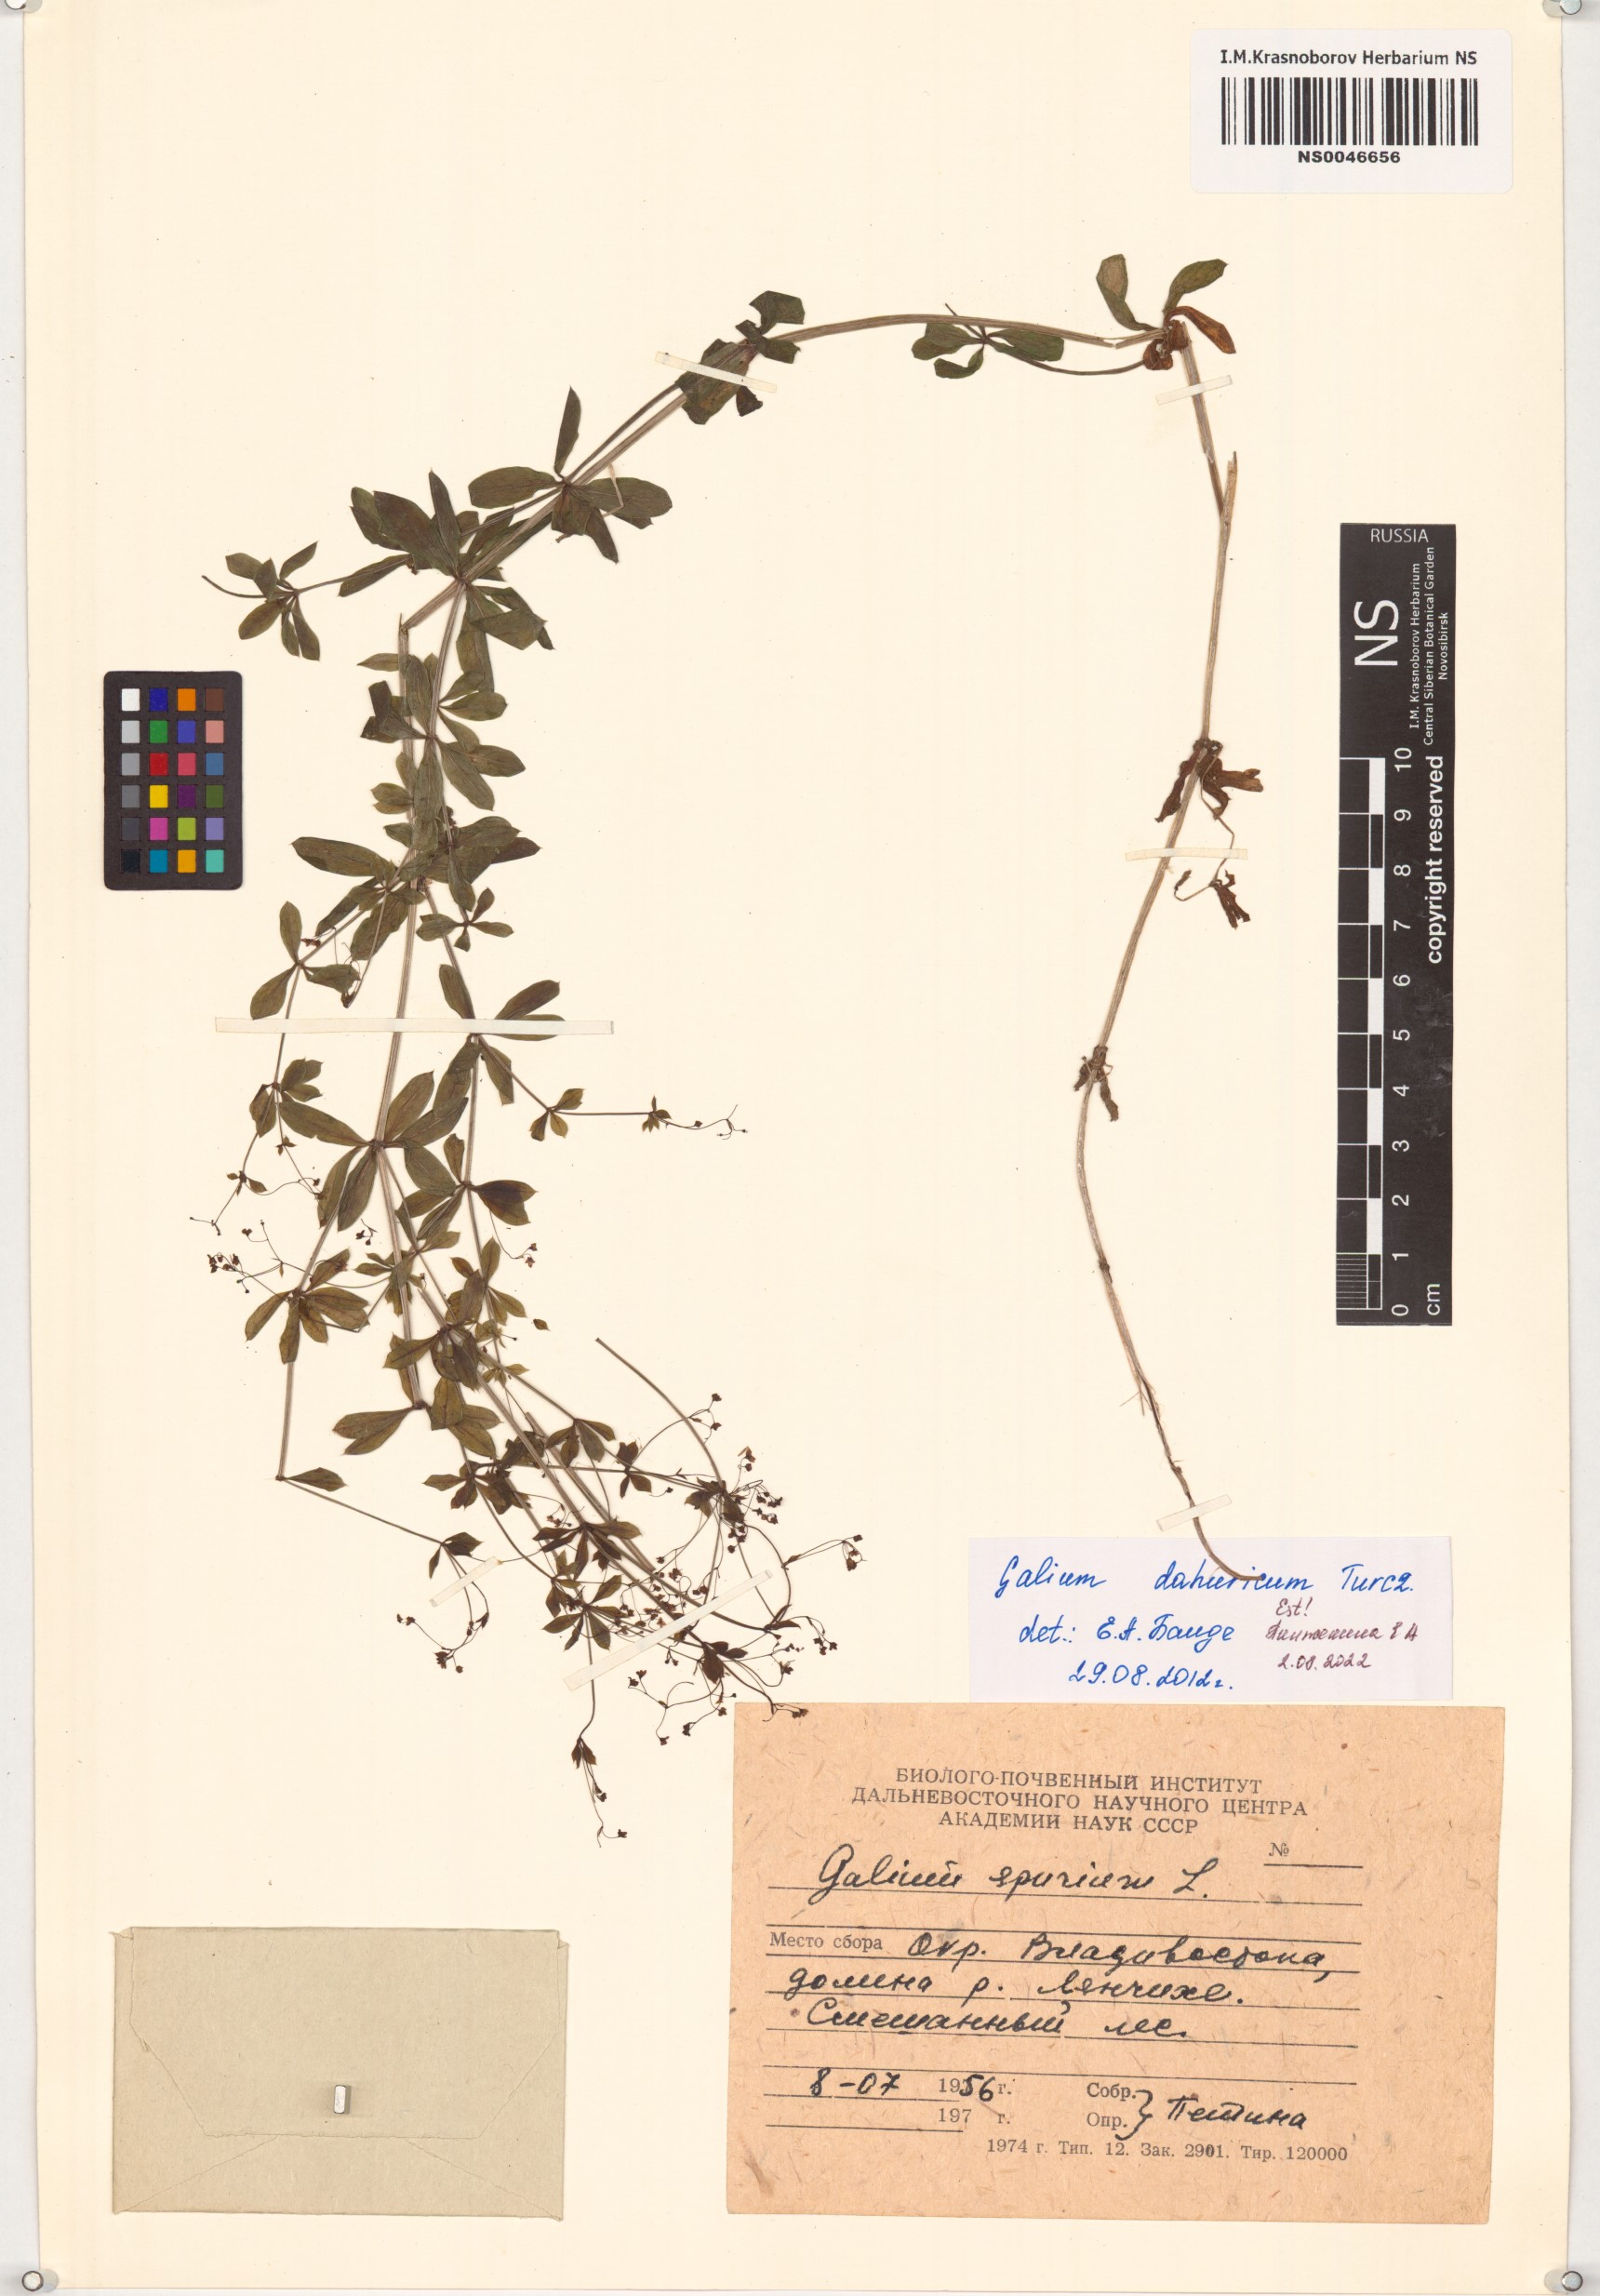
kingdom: Plantae
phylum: Tracheophyta
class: Magnoliopsida
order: Gentianales
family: Rubiaceae
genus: Galium
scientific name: Galium dahuricum
